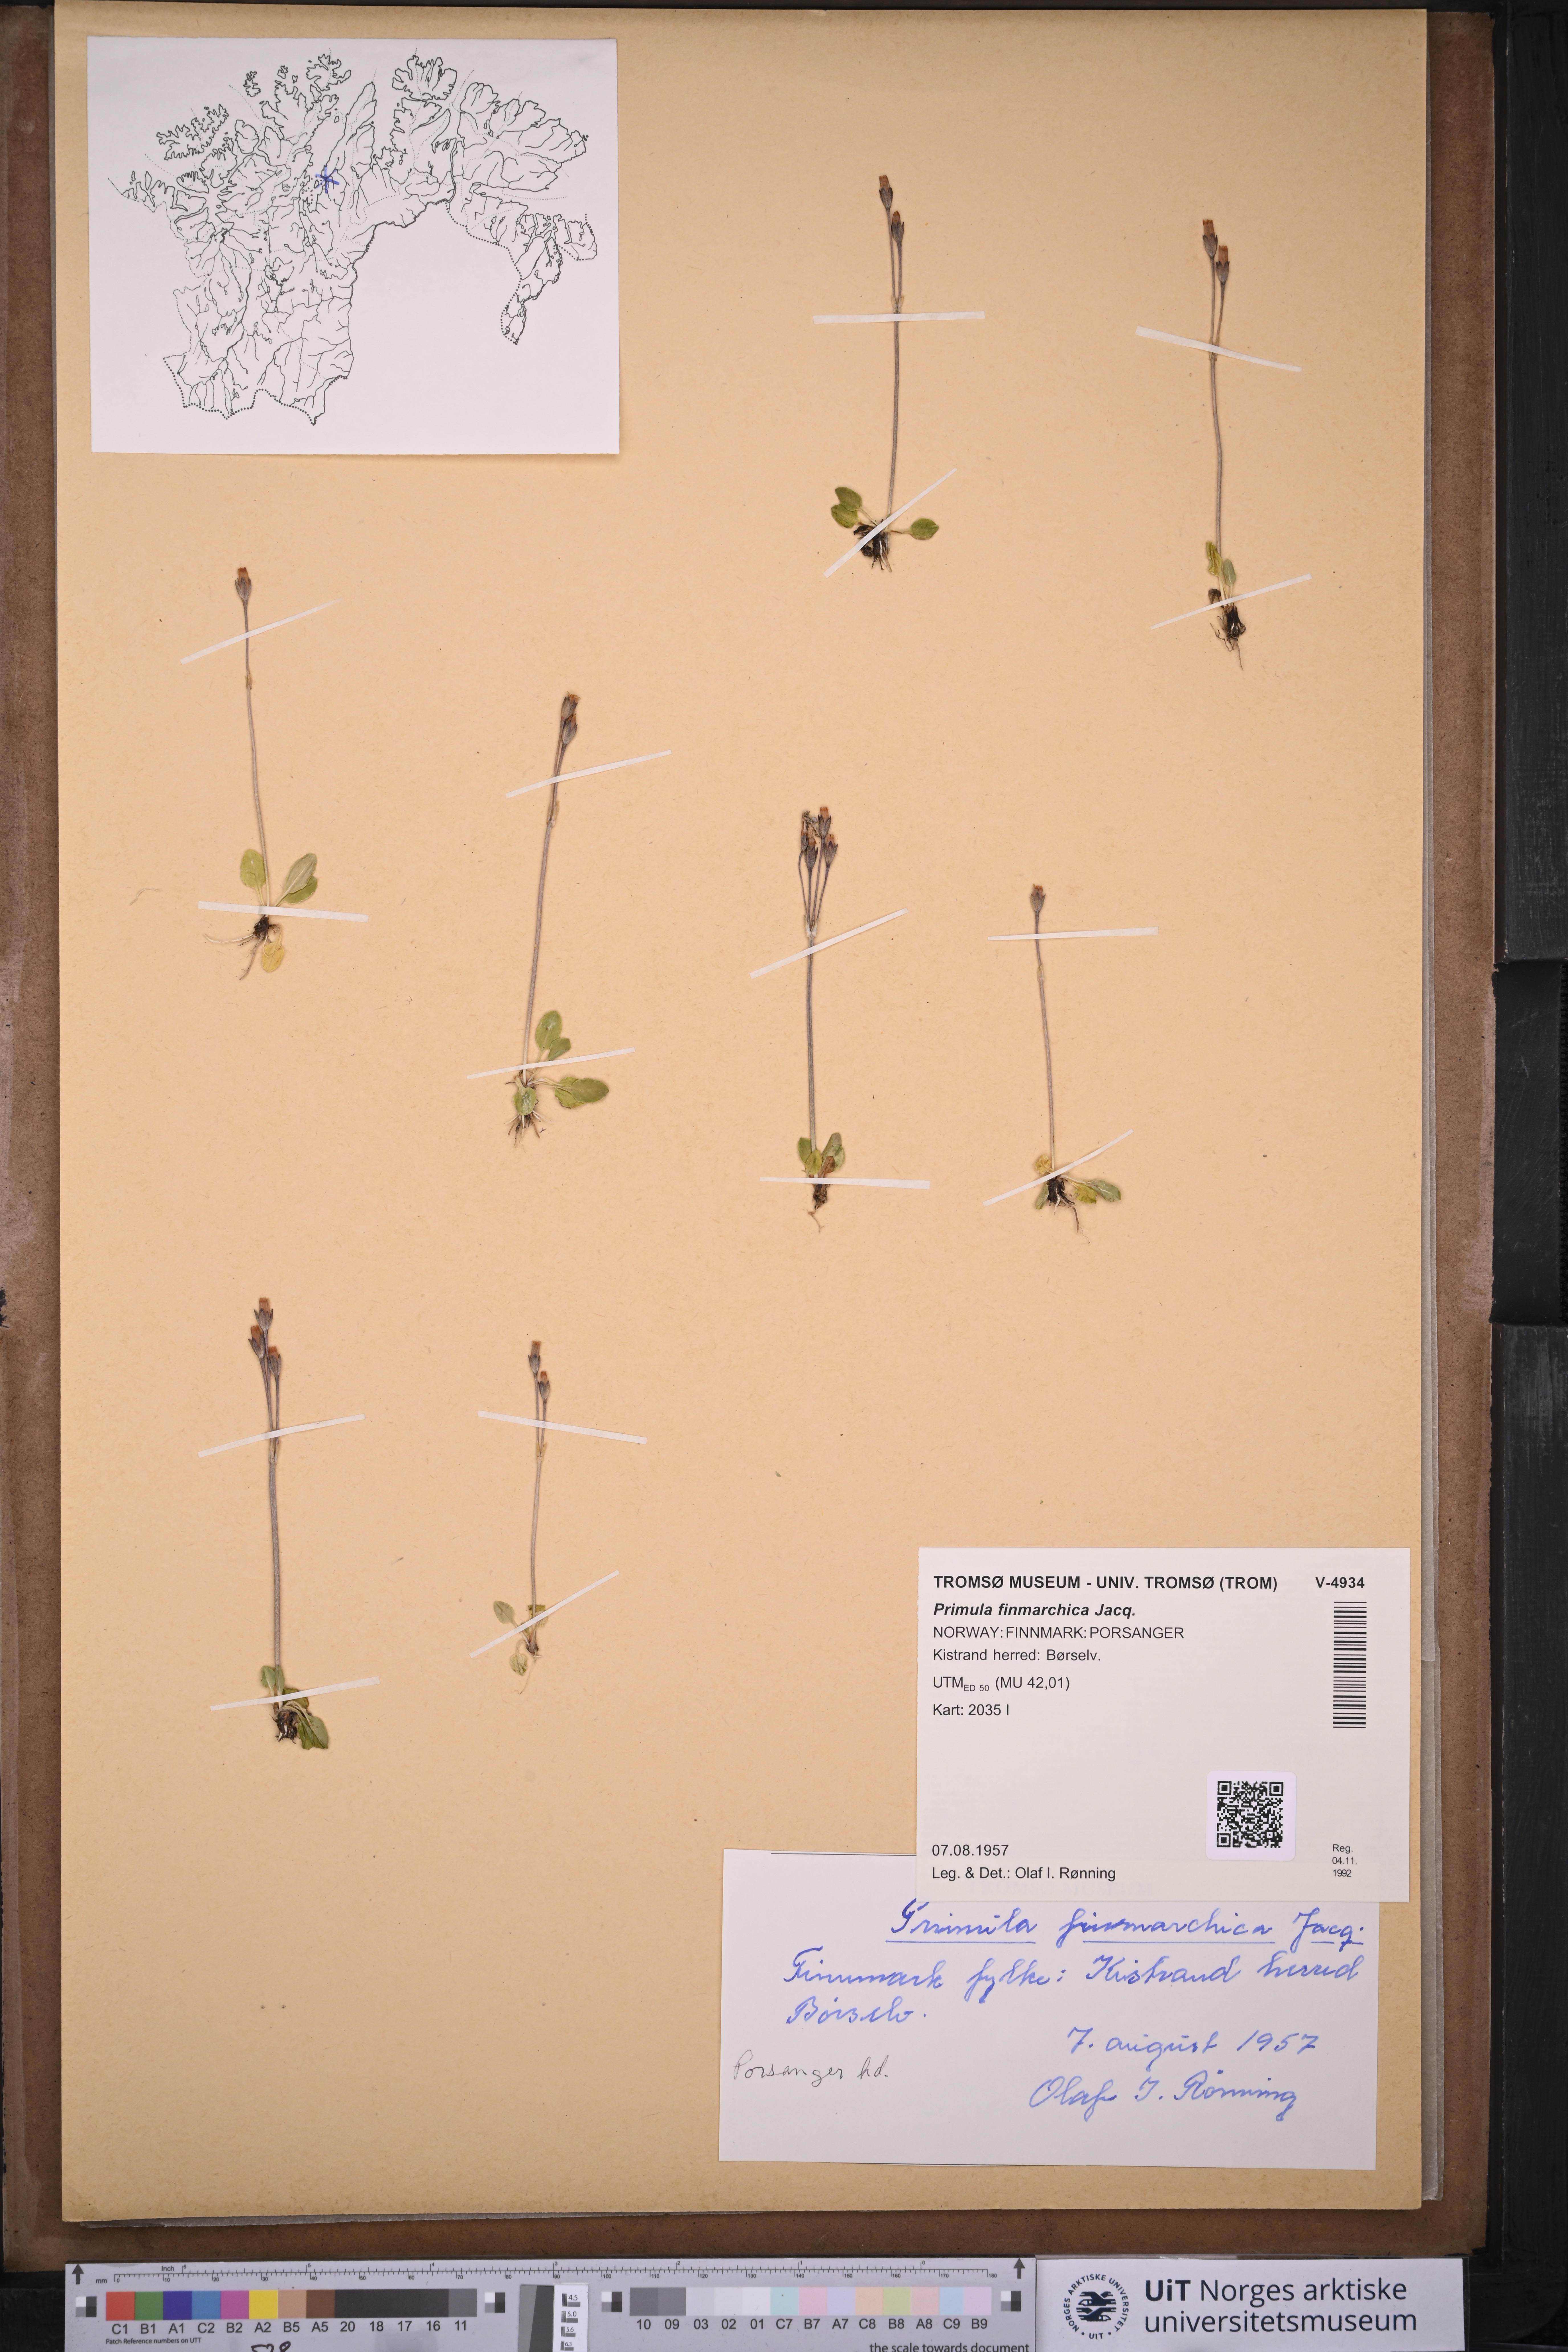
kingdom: Plantae
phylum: Tracheophyta
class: Magnoliopsida
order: Ericales
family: Primulaceae
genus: Primula
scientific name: Primula nutans
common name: Siberian primrose
